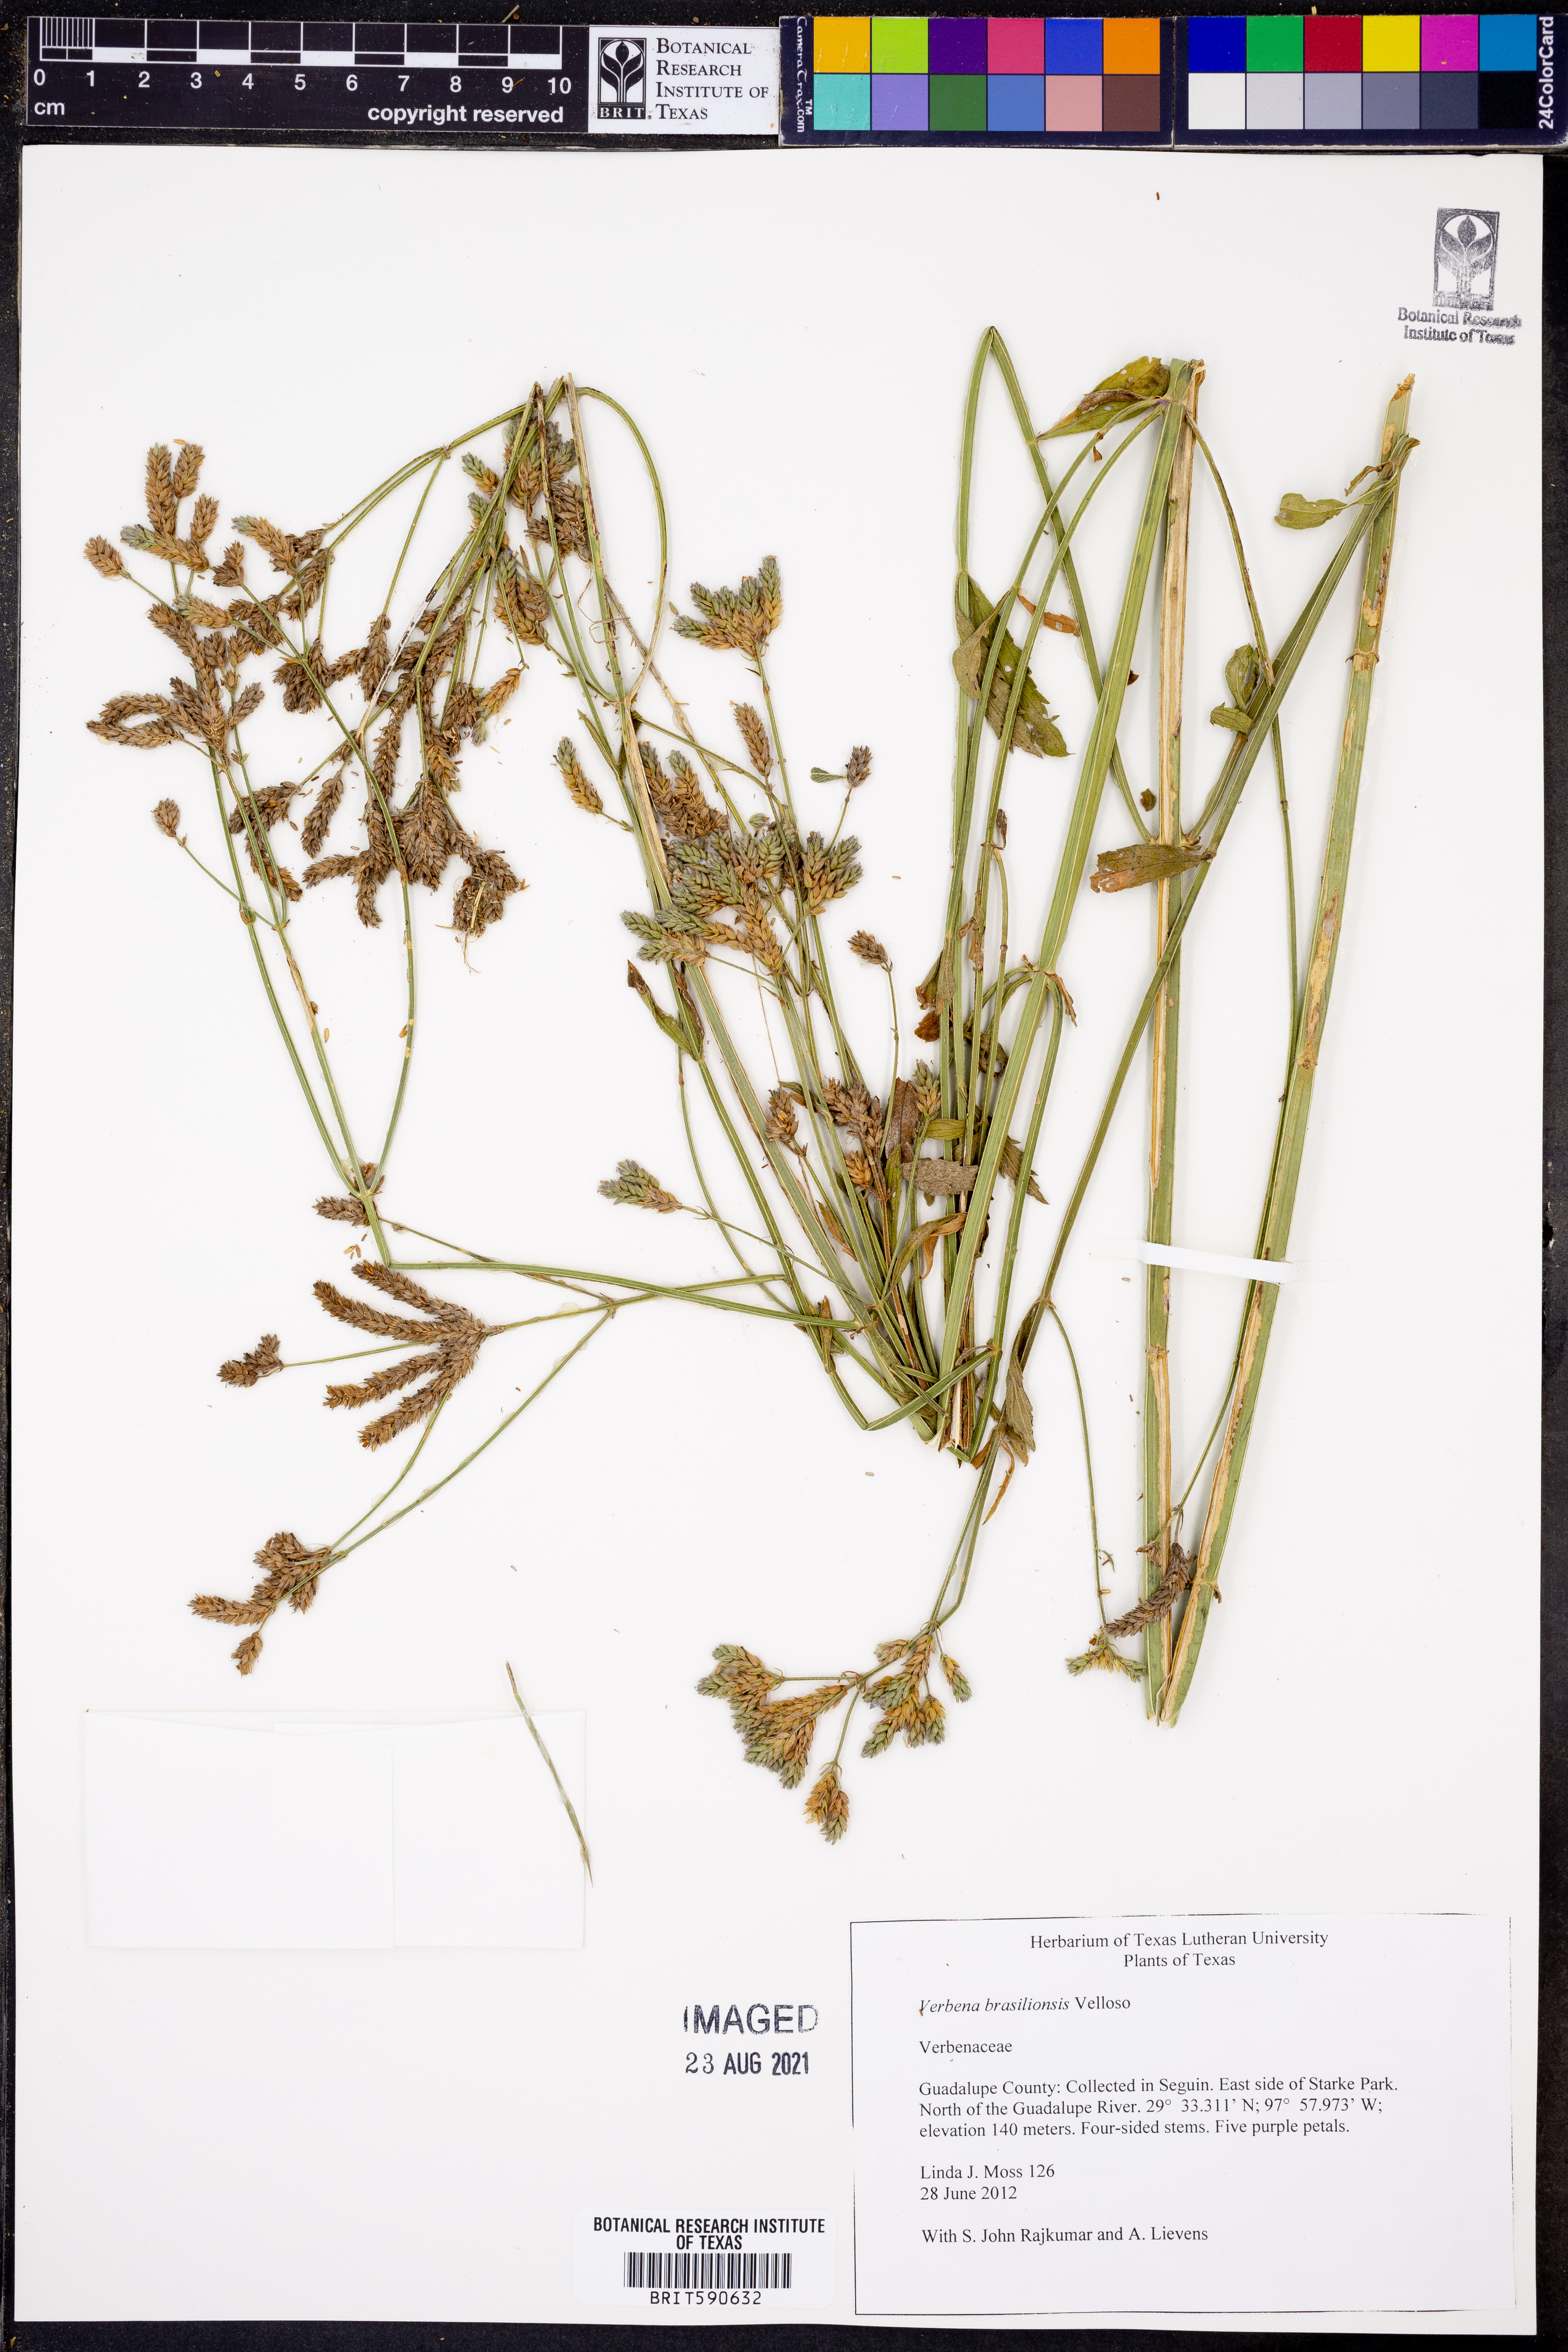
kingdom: Plantae
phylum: Tracheophyta
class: Magnoliopsida
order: Lamiales
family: Verbenaceae
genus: Verbena
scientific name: Verbena brasiliensis
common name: Brazilian vervain
